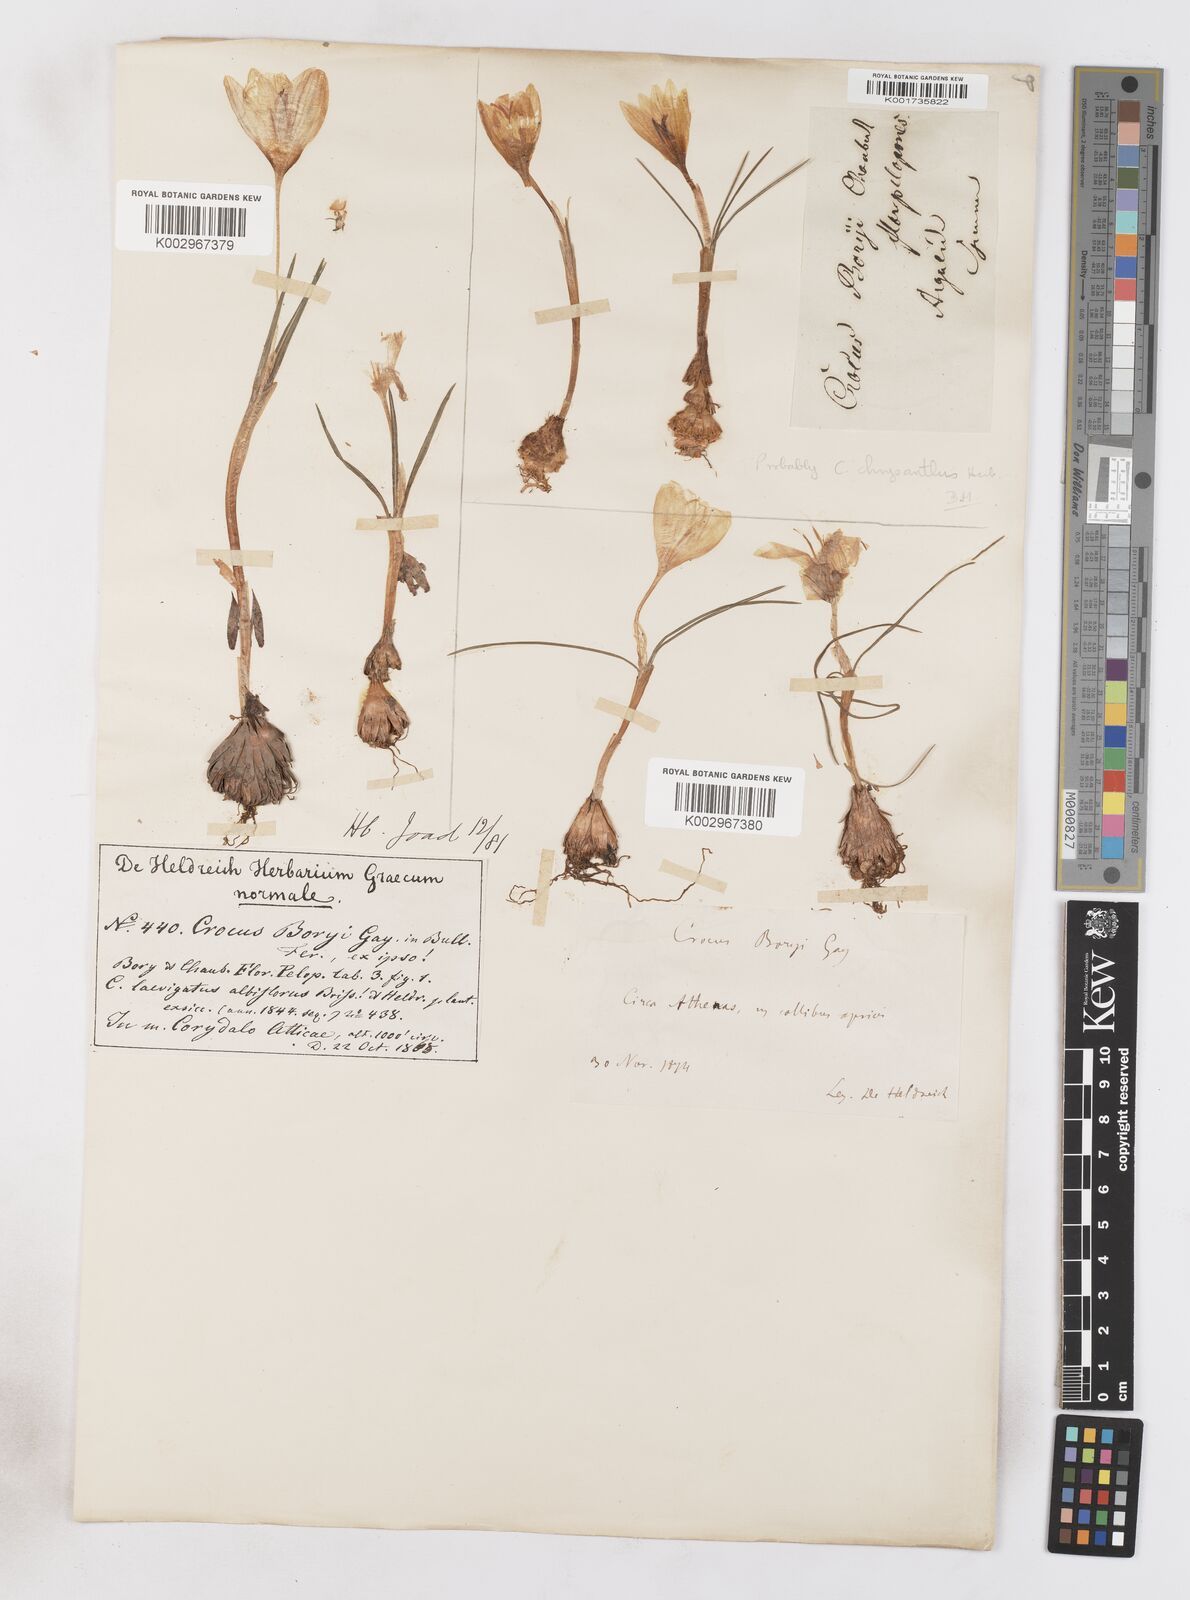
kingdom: Plantae
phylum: Tracheophyta
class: Liliopsida
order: Asparagales
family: Iridaceae
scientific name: Iridaceae
